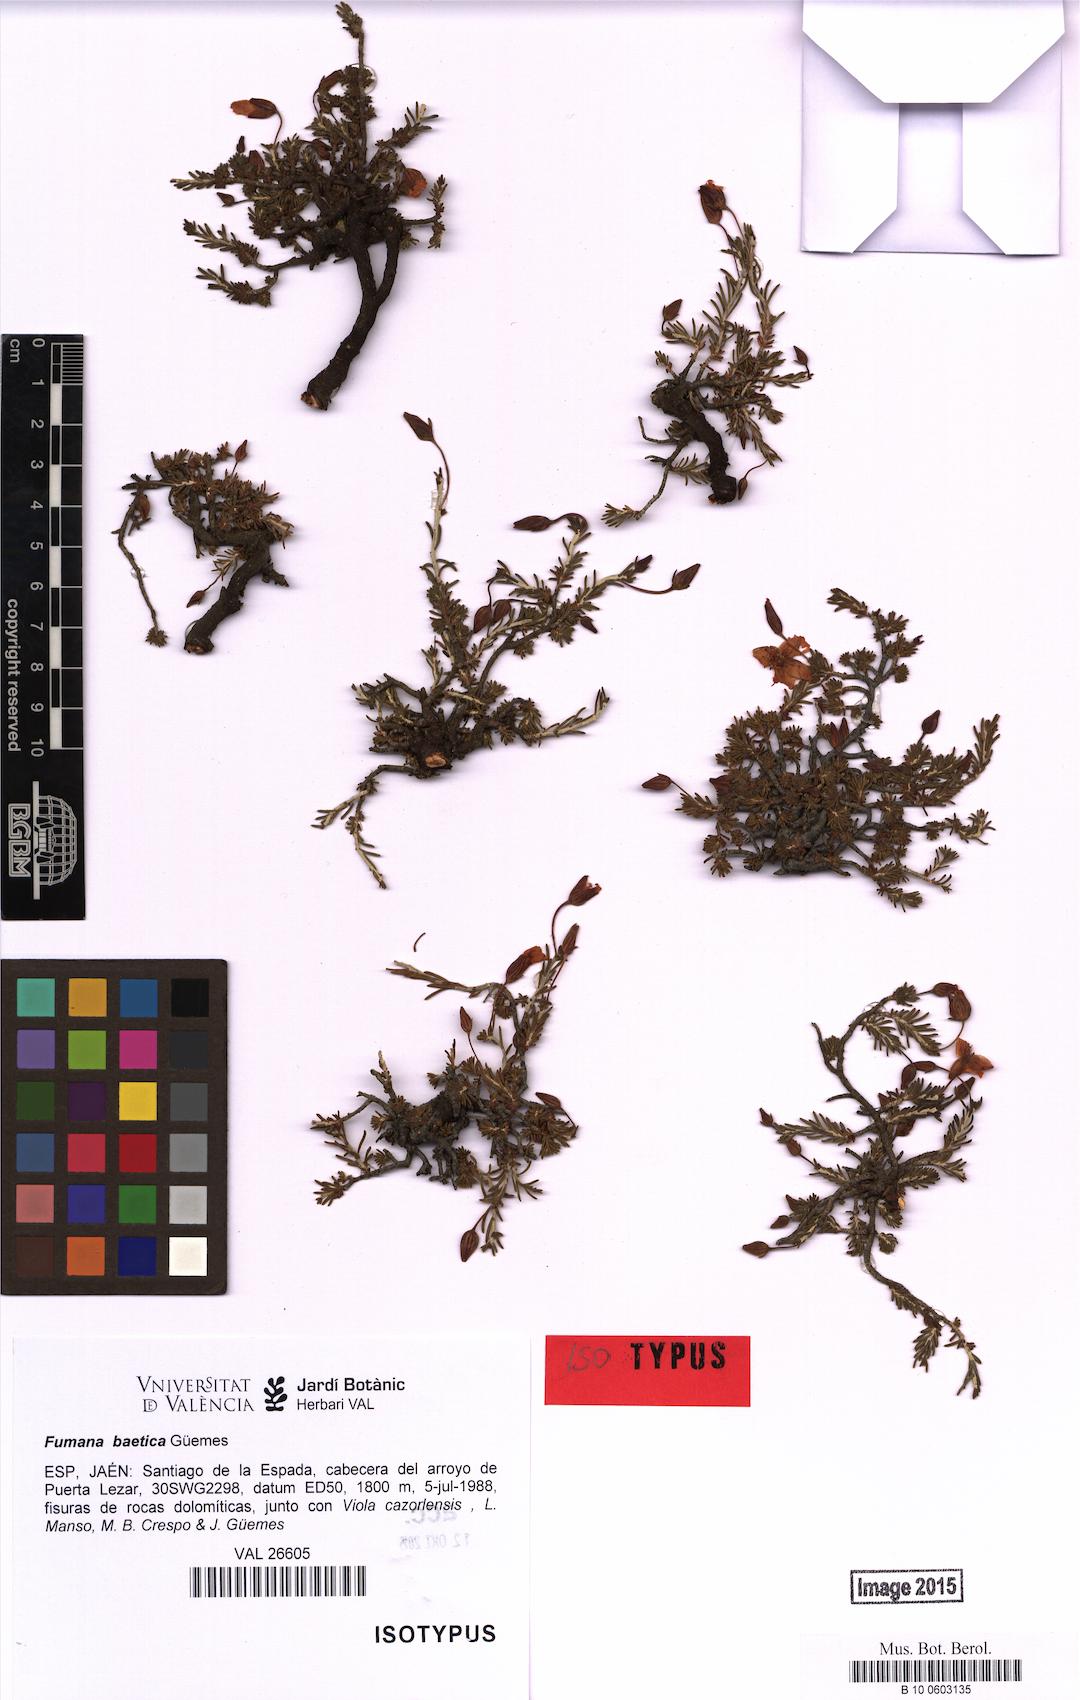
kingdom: Plantae
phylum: Tracheophyta
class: Magnoliopsida
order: Malvales
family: Cistaceae
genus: Fumana
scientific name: Fumana procumbens
